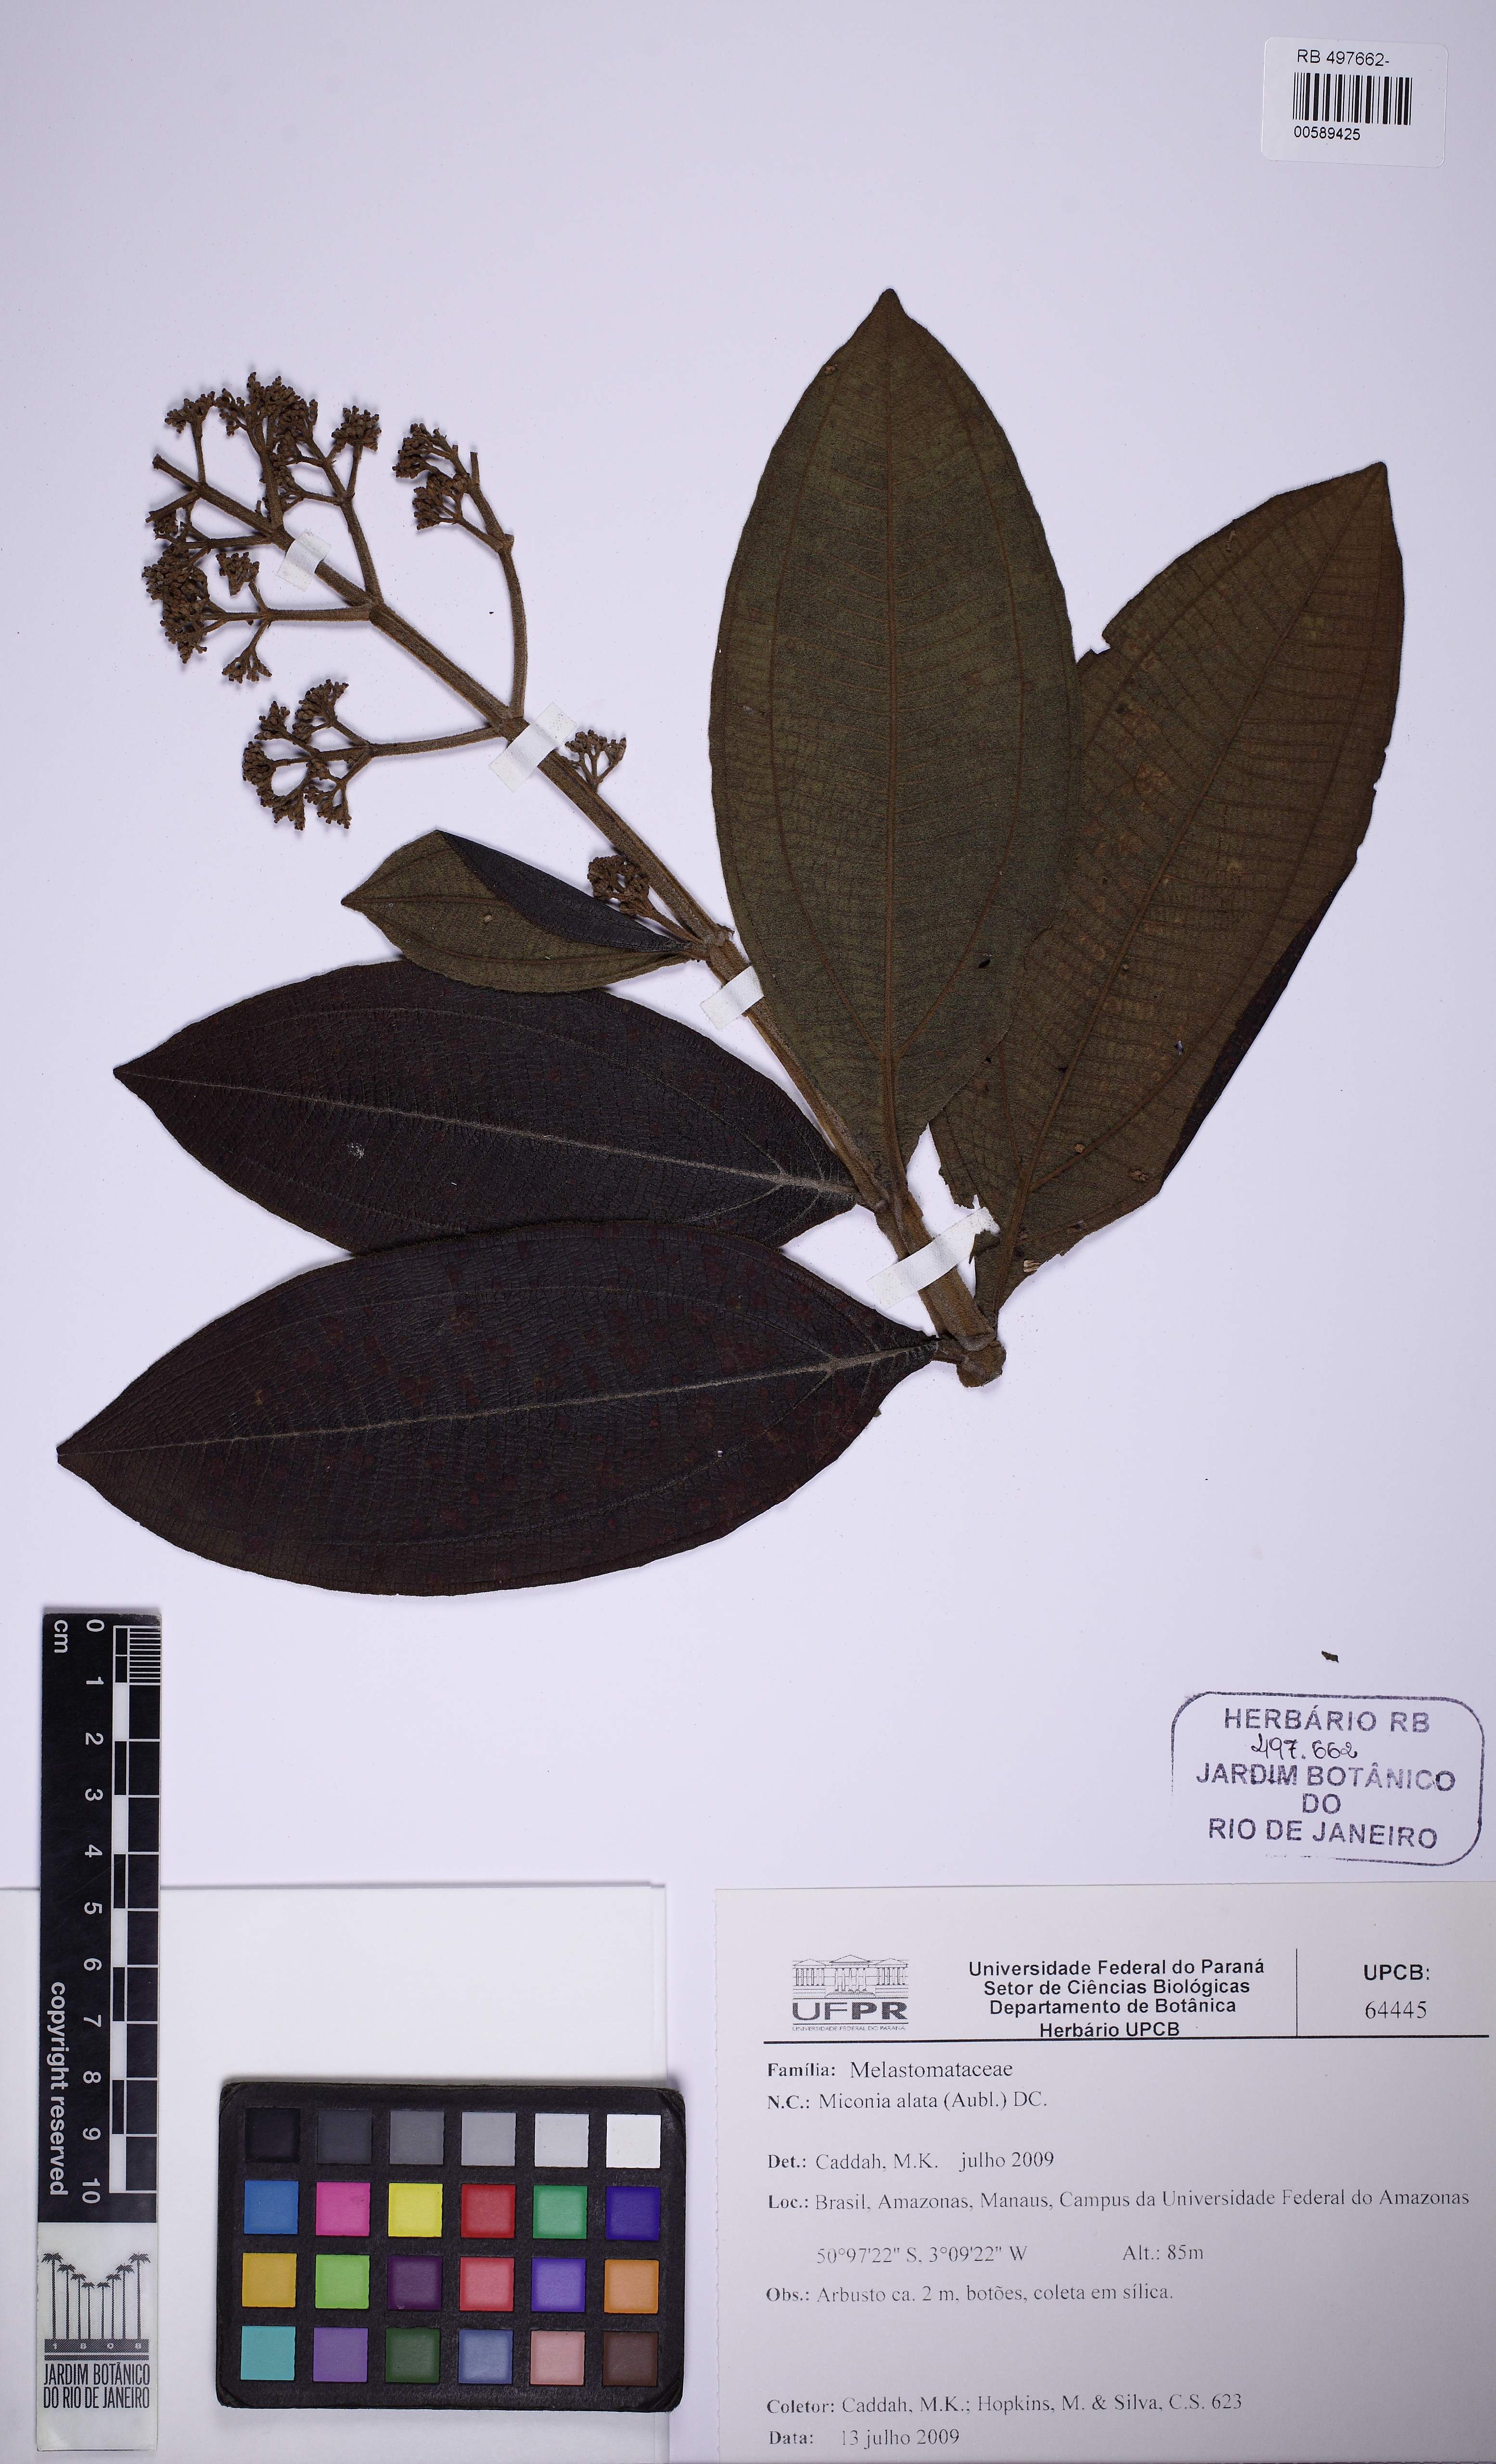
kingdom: Plantae
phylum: Tracheophyta
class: Magnoliopsida
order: Myrtales
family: Melastomataceae
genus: Miconia
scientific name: Miconia alata
